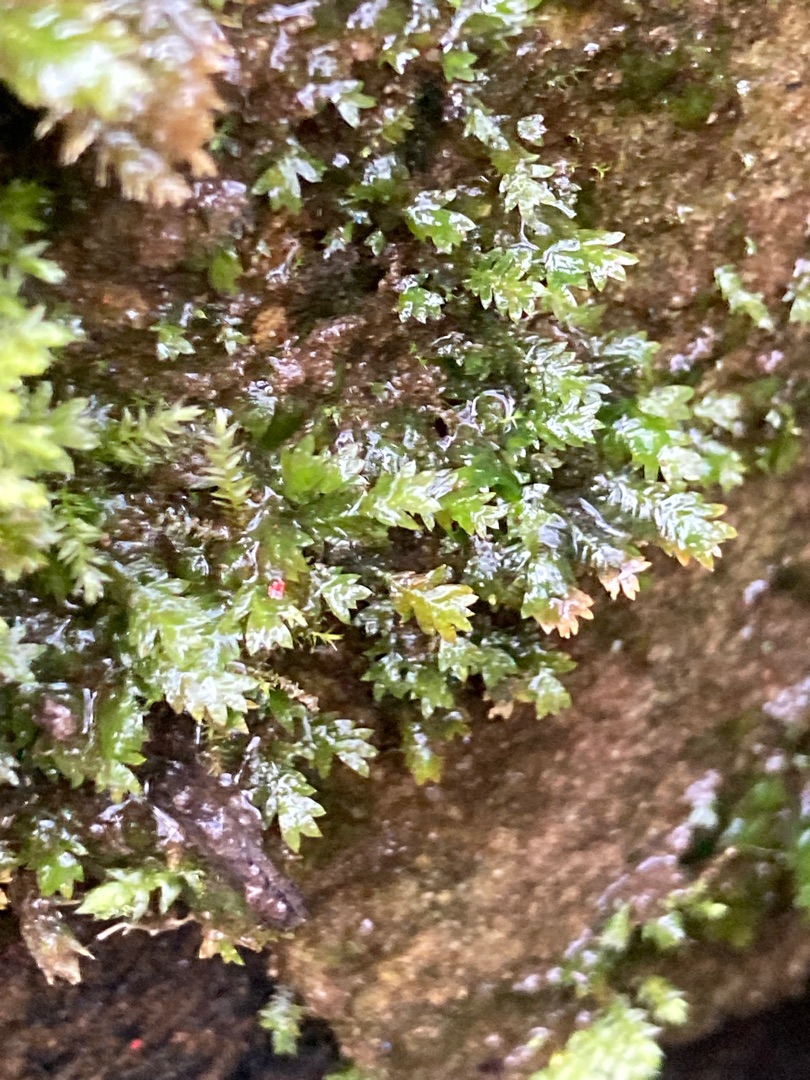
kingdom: Plantae
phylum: Bryophyta
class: Bryopsida
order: Dicranales
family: Fissidentaceae
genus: Fissidens
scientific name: Fissidens taxifolius
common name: Taksbladet rademos
